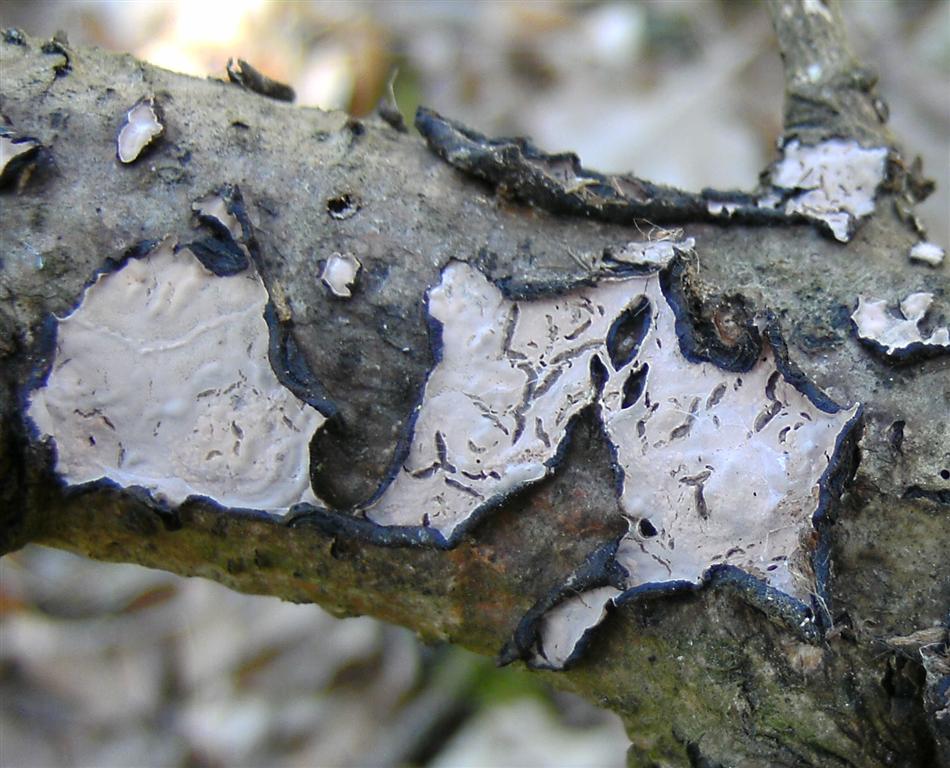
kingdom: Fungi
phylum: Basidiomycota
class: Agaricomycetes
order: Russulales
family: Peniophoraceae
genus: Peniophora
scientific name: Peniophora quercina
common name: ege-voksskind
